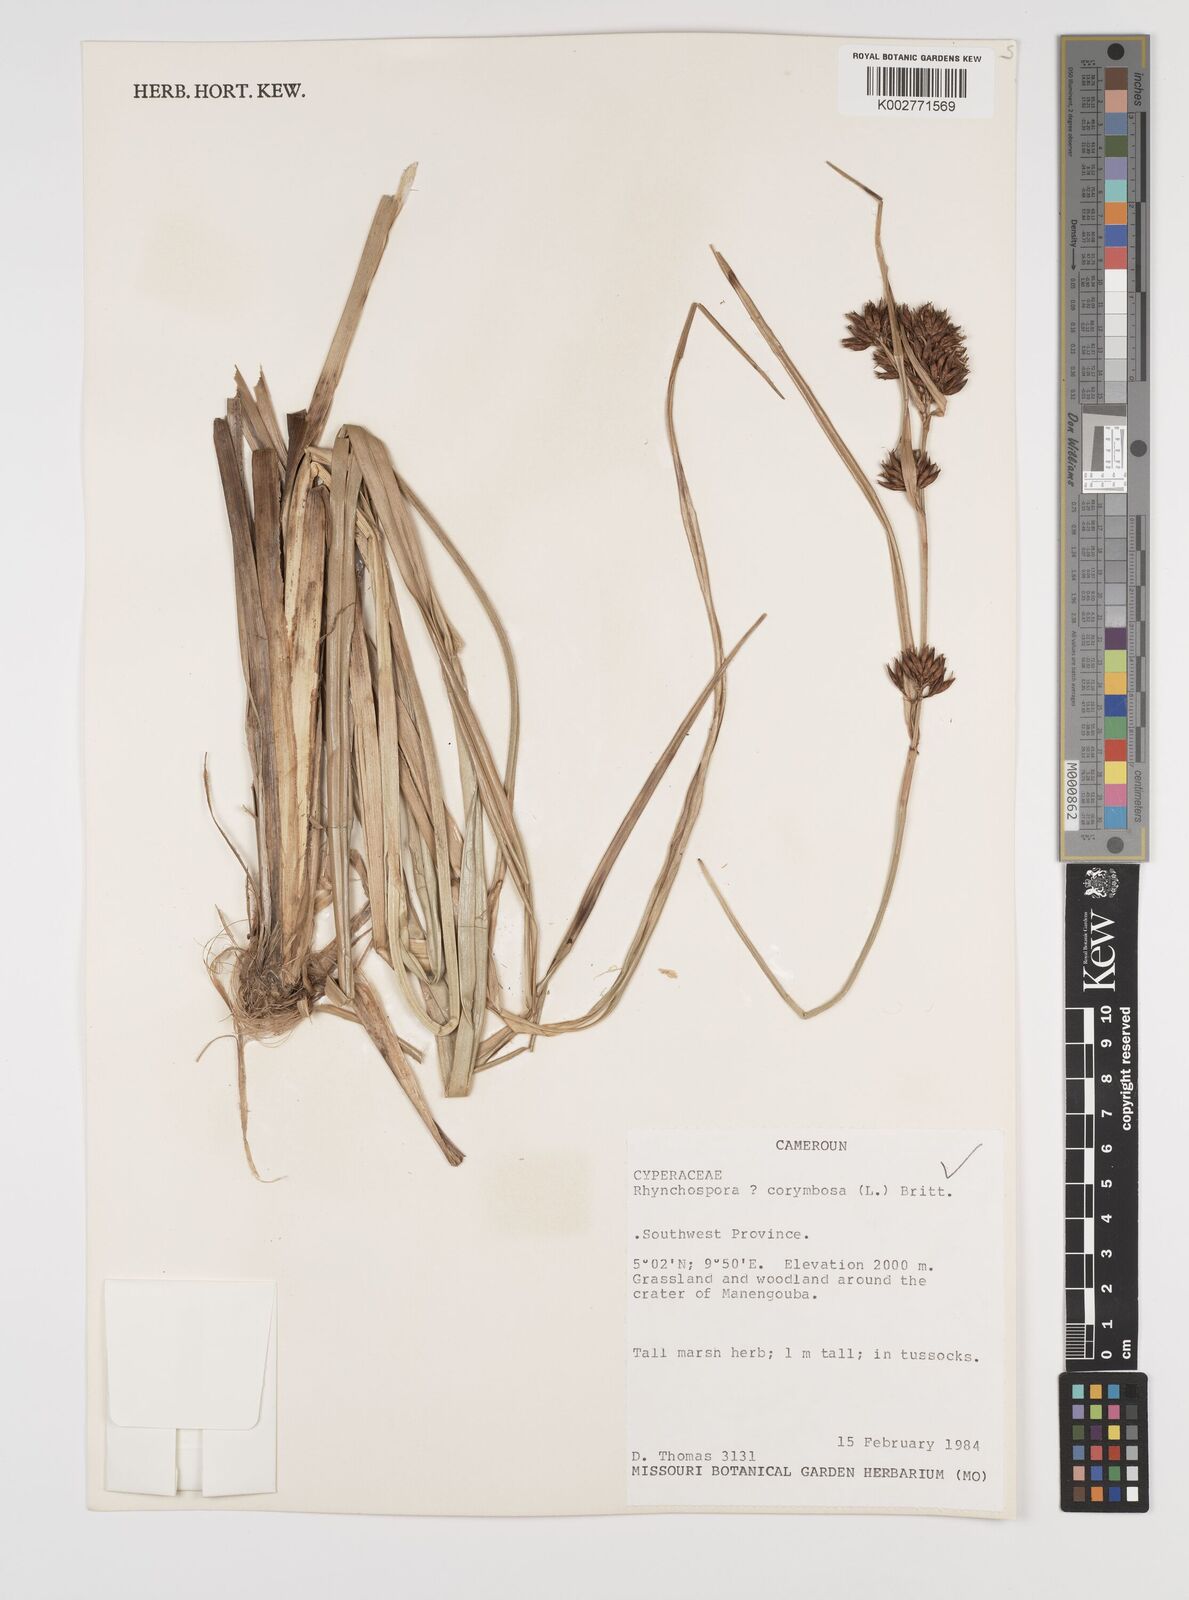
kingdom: Plantae
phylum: Tracheophyta
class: Liliopsida
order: Poales
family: Cyperaceae
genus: Rhynchospora
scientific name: Rhynchospora corymbosa
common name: Golden beak sedge
